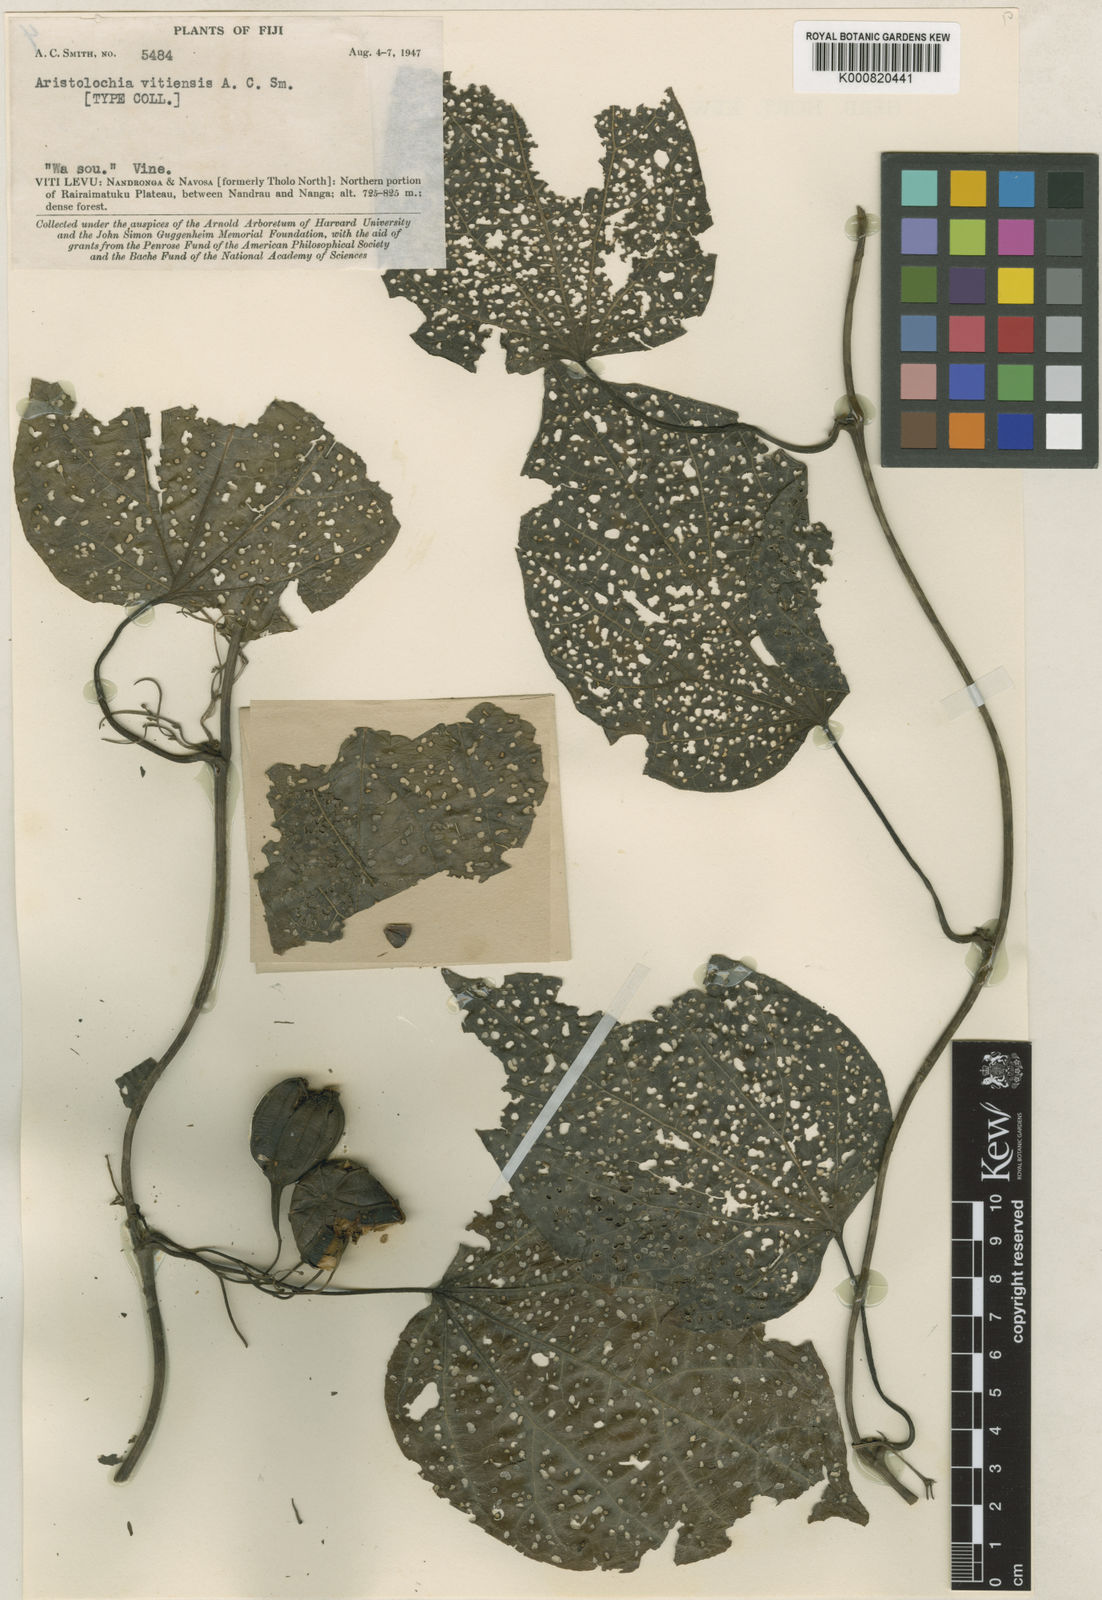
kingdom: Plantae
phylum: Tracheophyta
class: Magnoliopsida
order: Piperales
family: Aristolochiaceae
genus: Aristolochia
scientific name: Aristolochia vitiensis
